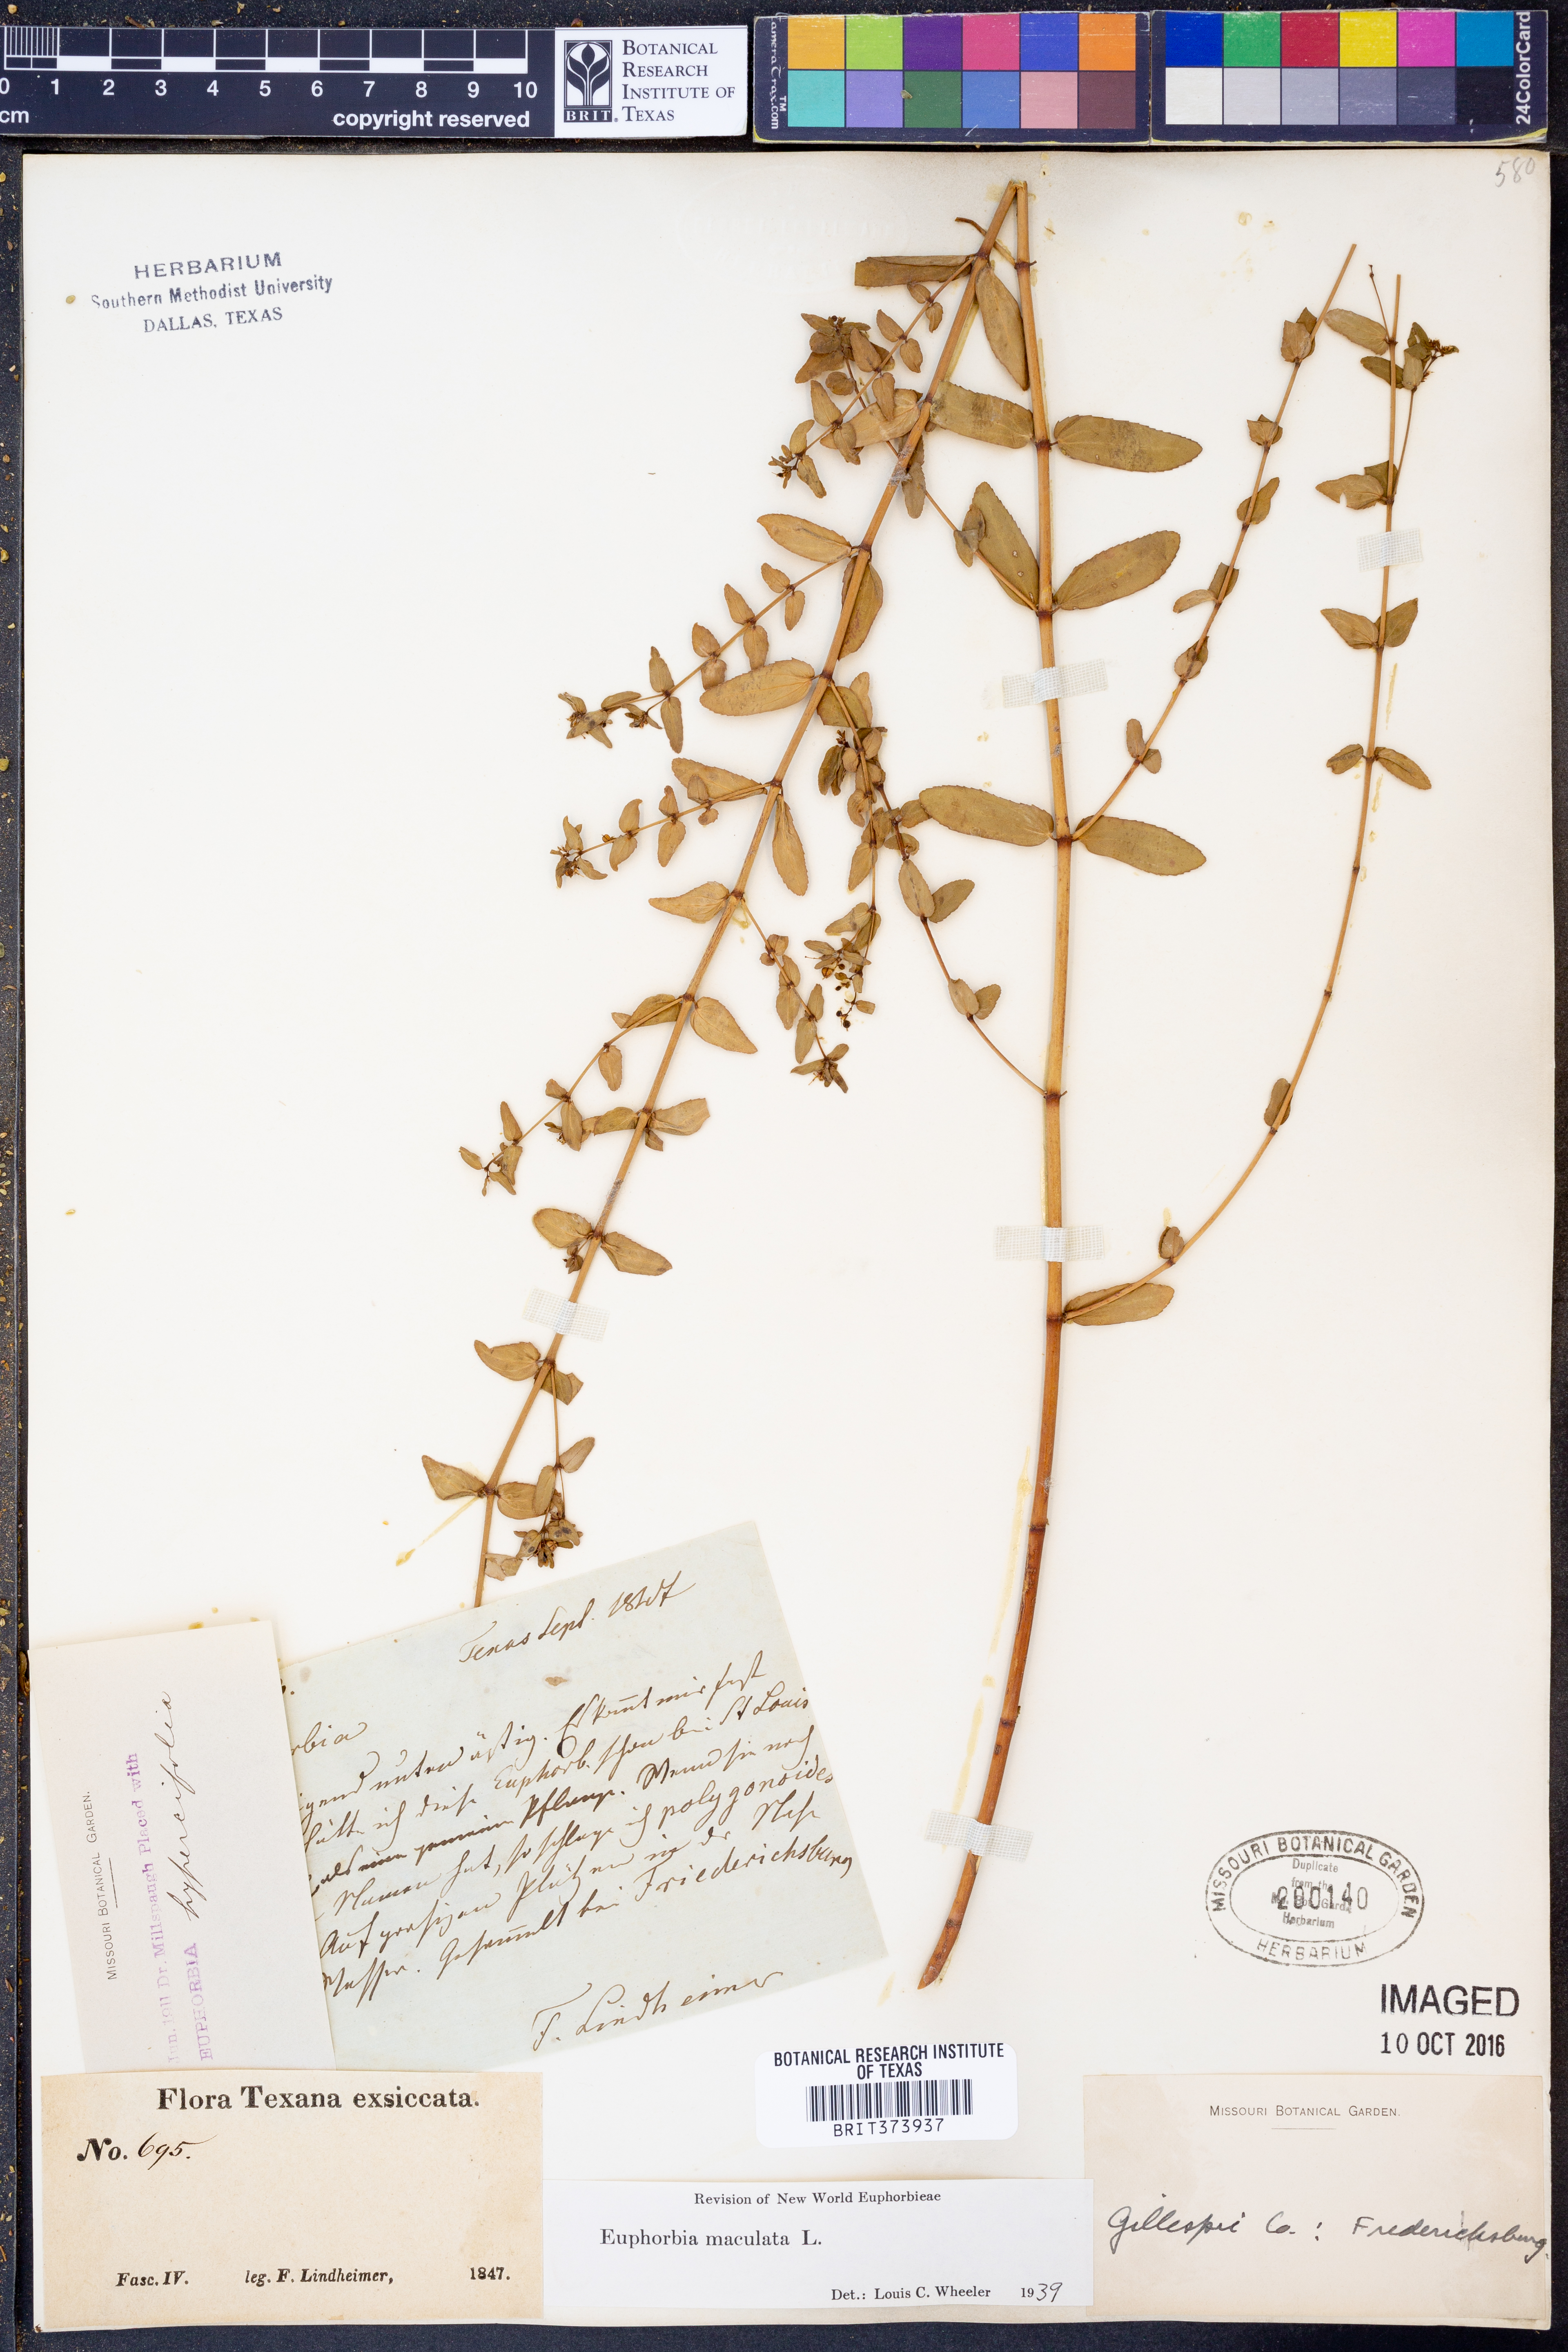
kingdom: Plantae
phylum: Tracheophyta
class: Magnoliopsida
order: Malpighiales
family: Euphorbiaceae
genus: Euphorbia
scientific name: Euphorbia maculata
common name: Spotted spurge
